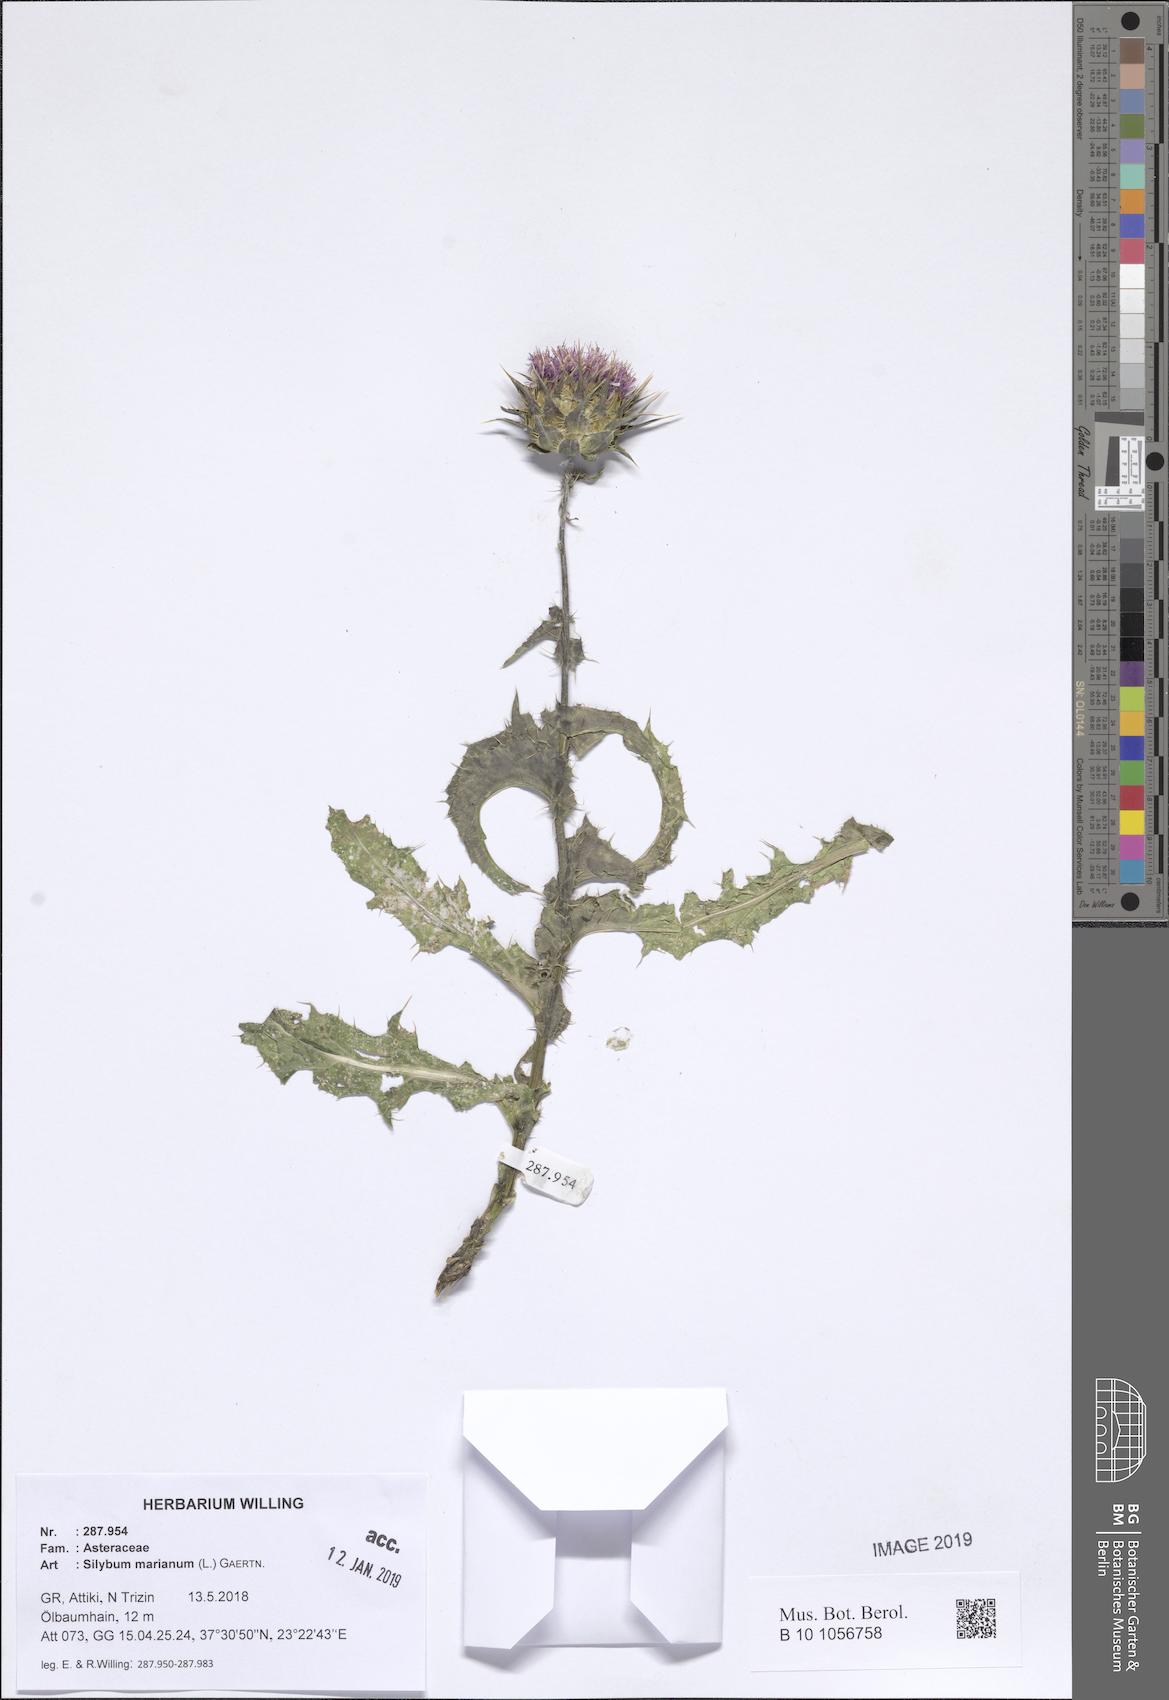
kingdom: Plantae
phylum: Tracheophyta
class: Magnoliopsida
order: Asterales
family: Asteraceae
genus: Silybum
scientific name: Silybum marianum
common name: Milk thistle
